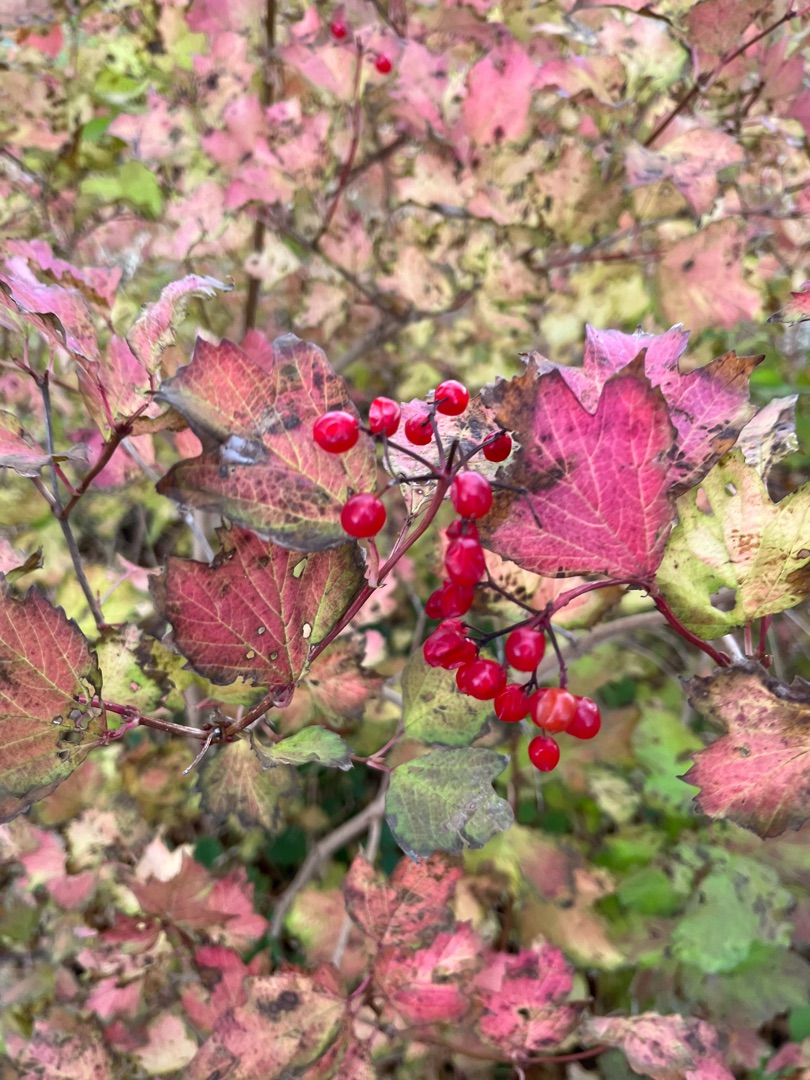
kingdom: Plantae
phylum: Tracheophyta
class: Magnoliopsida
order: Dipsacales
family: Viburnaceae
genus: Viburnum
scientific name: Viburnum opulus
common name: Kvalkved
